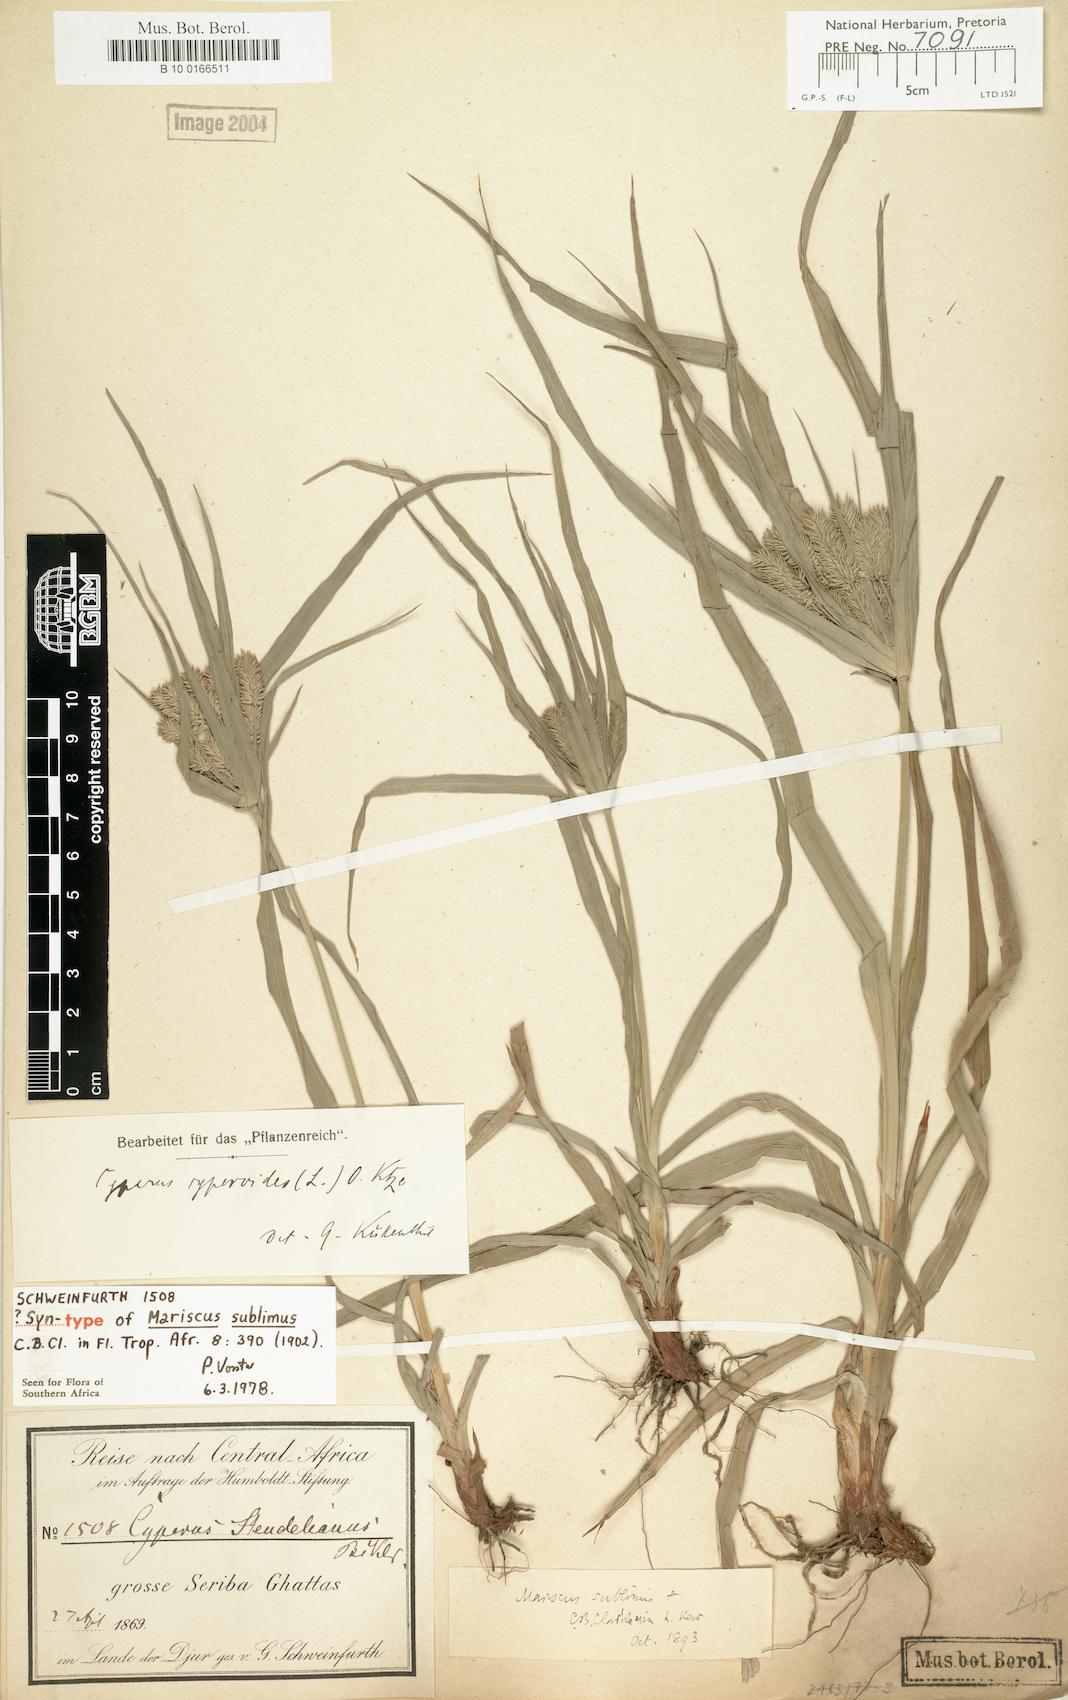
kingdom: Plantae
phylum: Tracheophyta
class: Liliopsida
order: Poales
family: Cyperaceae
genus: Cyperus
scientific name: Cyperus sublimis
